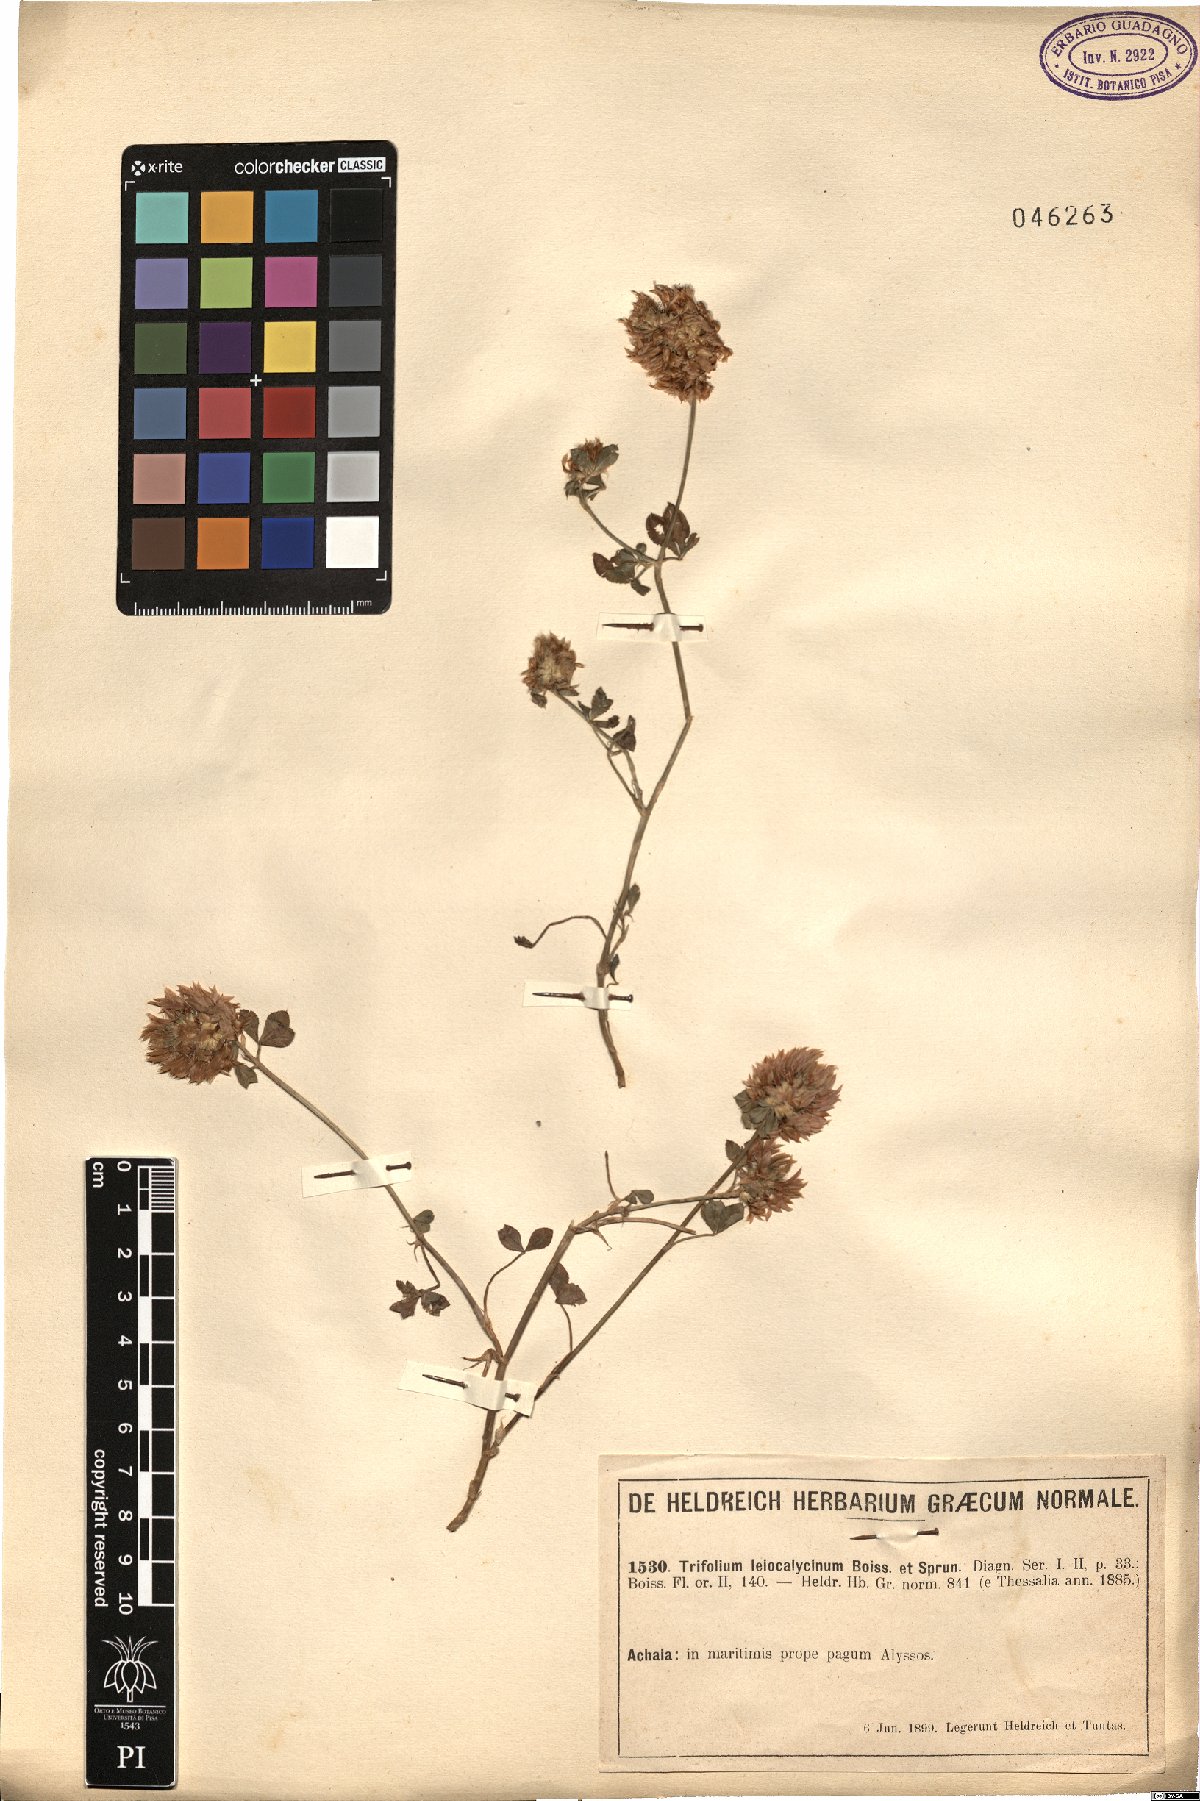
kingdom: Plantae
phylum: Tracheophyta
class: Magnoliopsida
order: Fabales
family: Fabaceae
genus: Trifolium
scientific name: Trifolium mutabile
